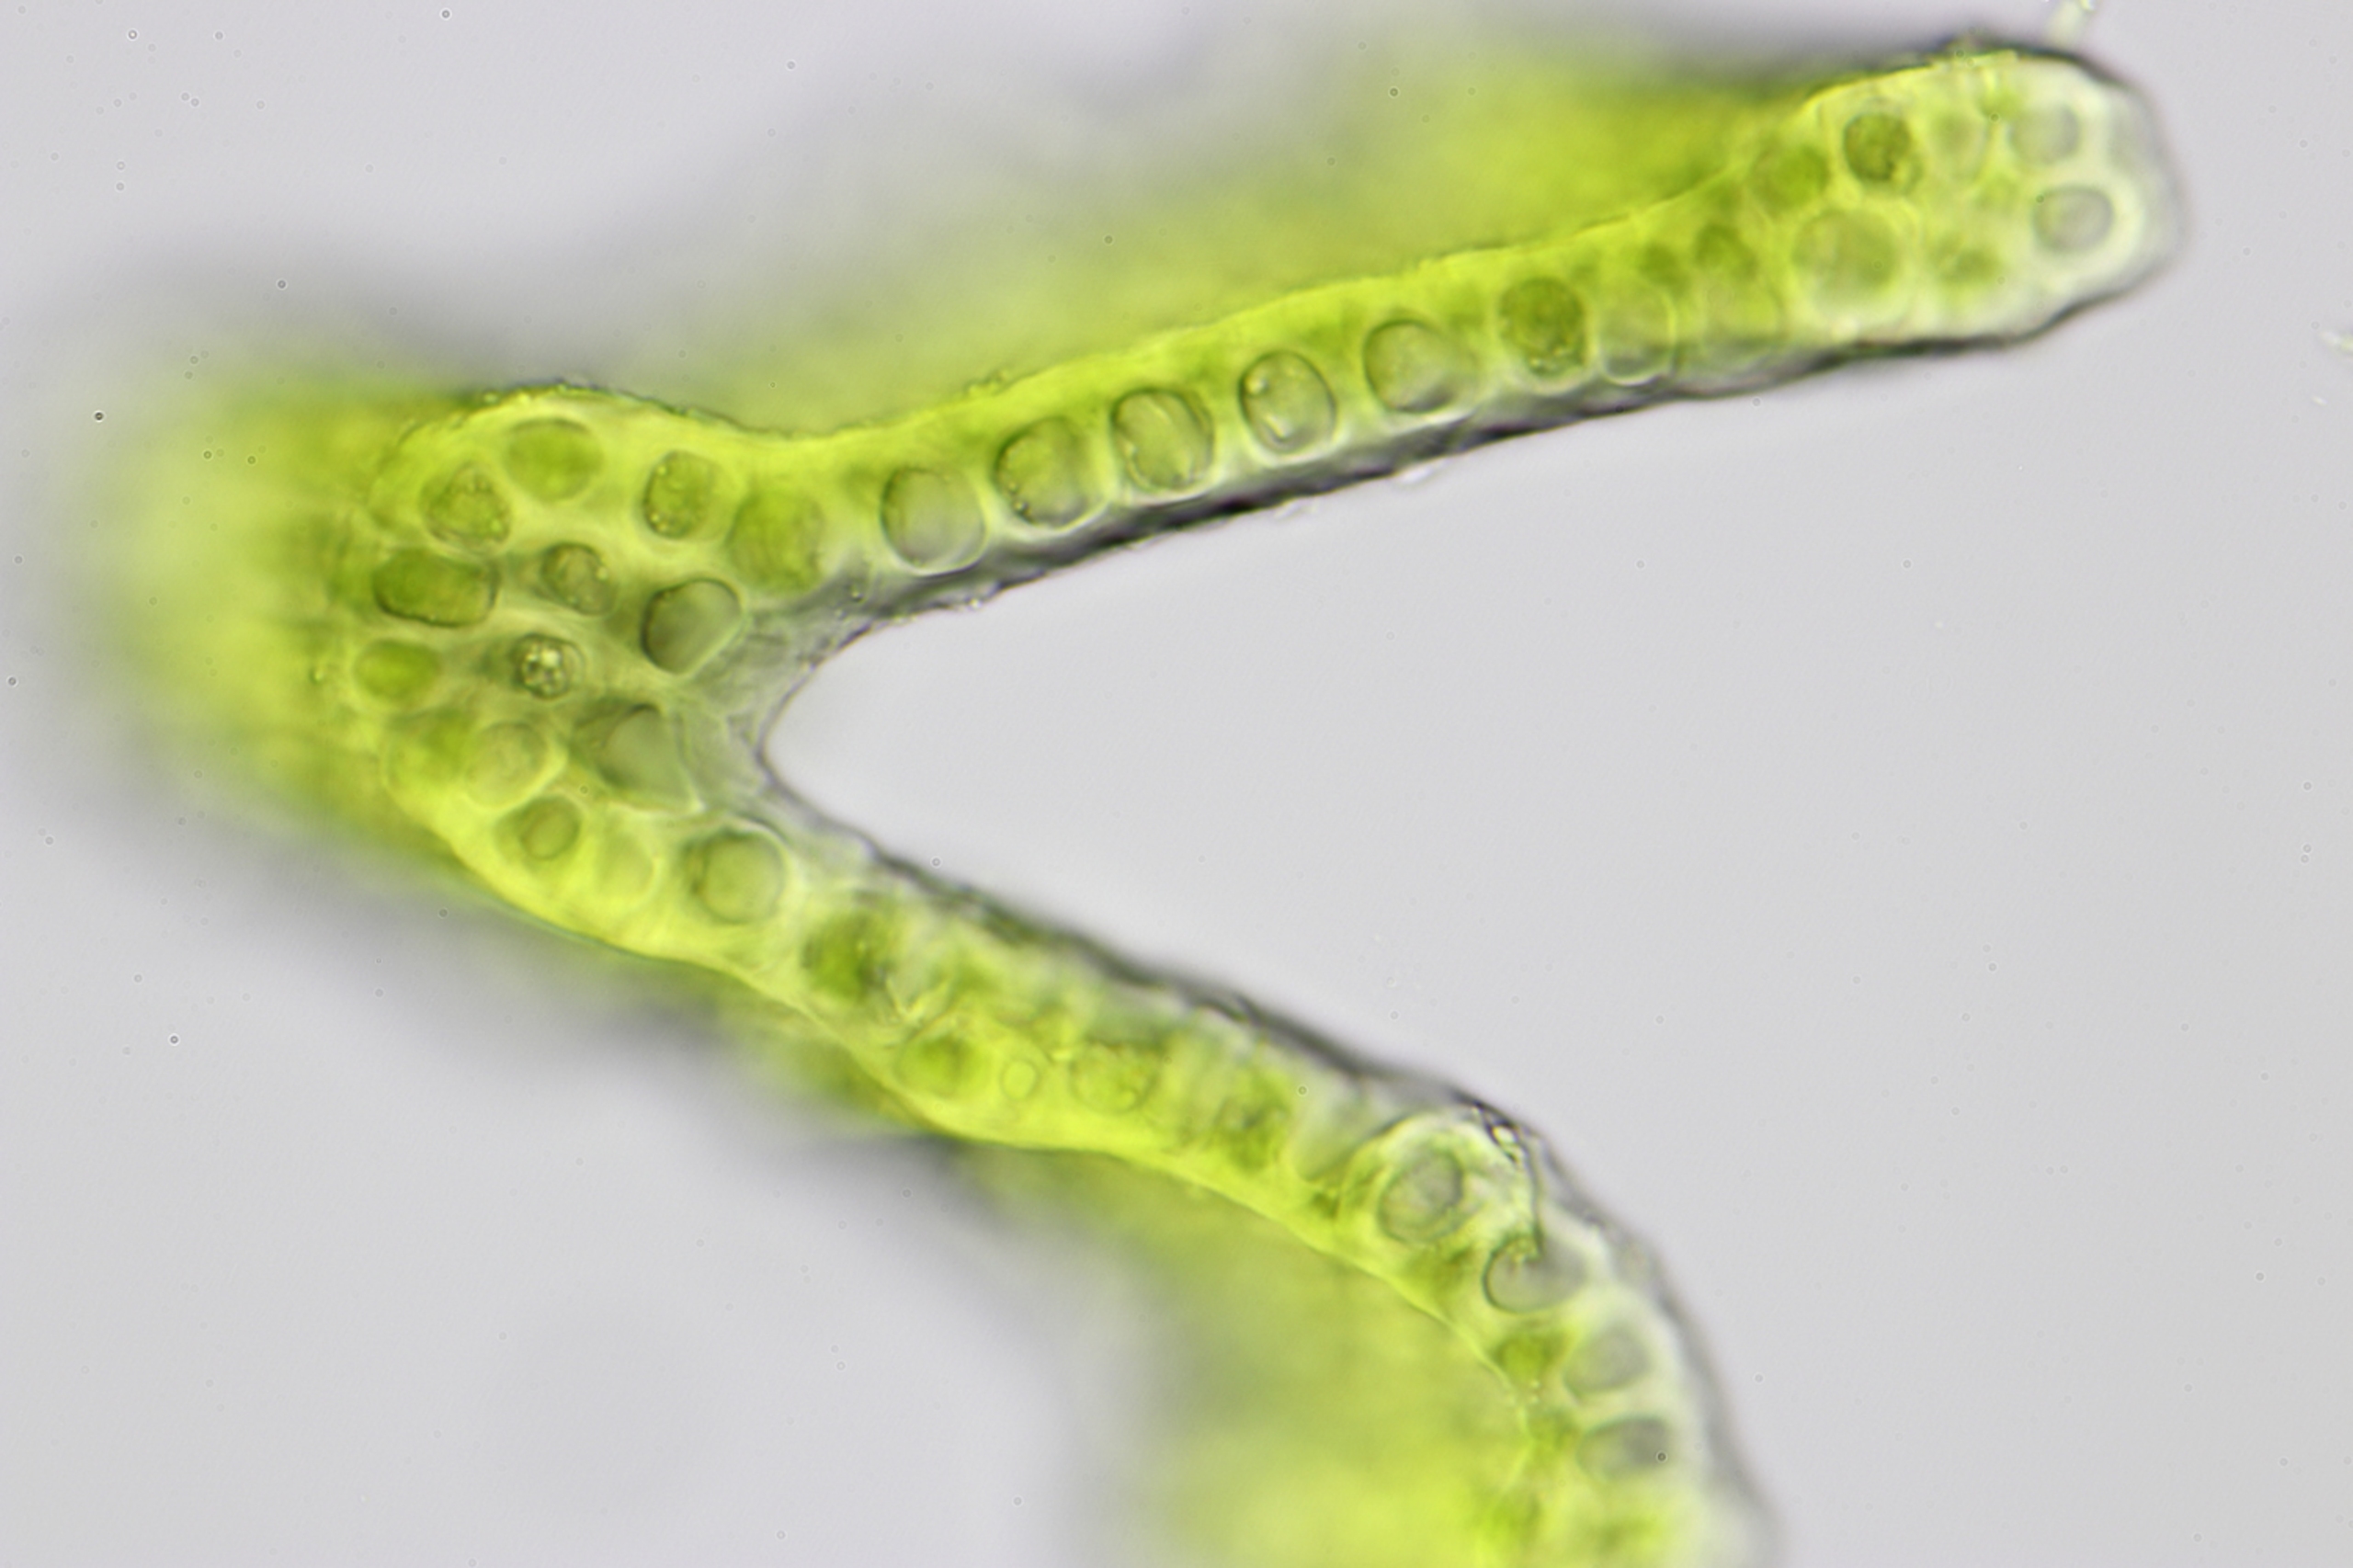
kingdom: Plantae
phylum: Bryophyta
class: Bryopsida
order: Grimmiales
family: Grimmiaceae
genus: Grimmia
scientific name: Grimmia trichophylla
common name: Glathåret gråmos
